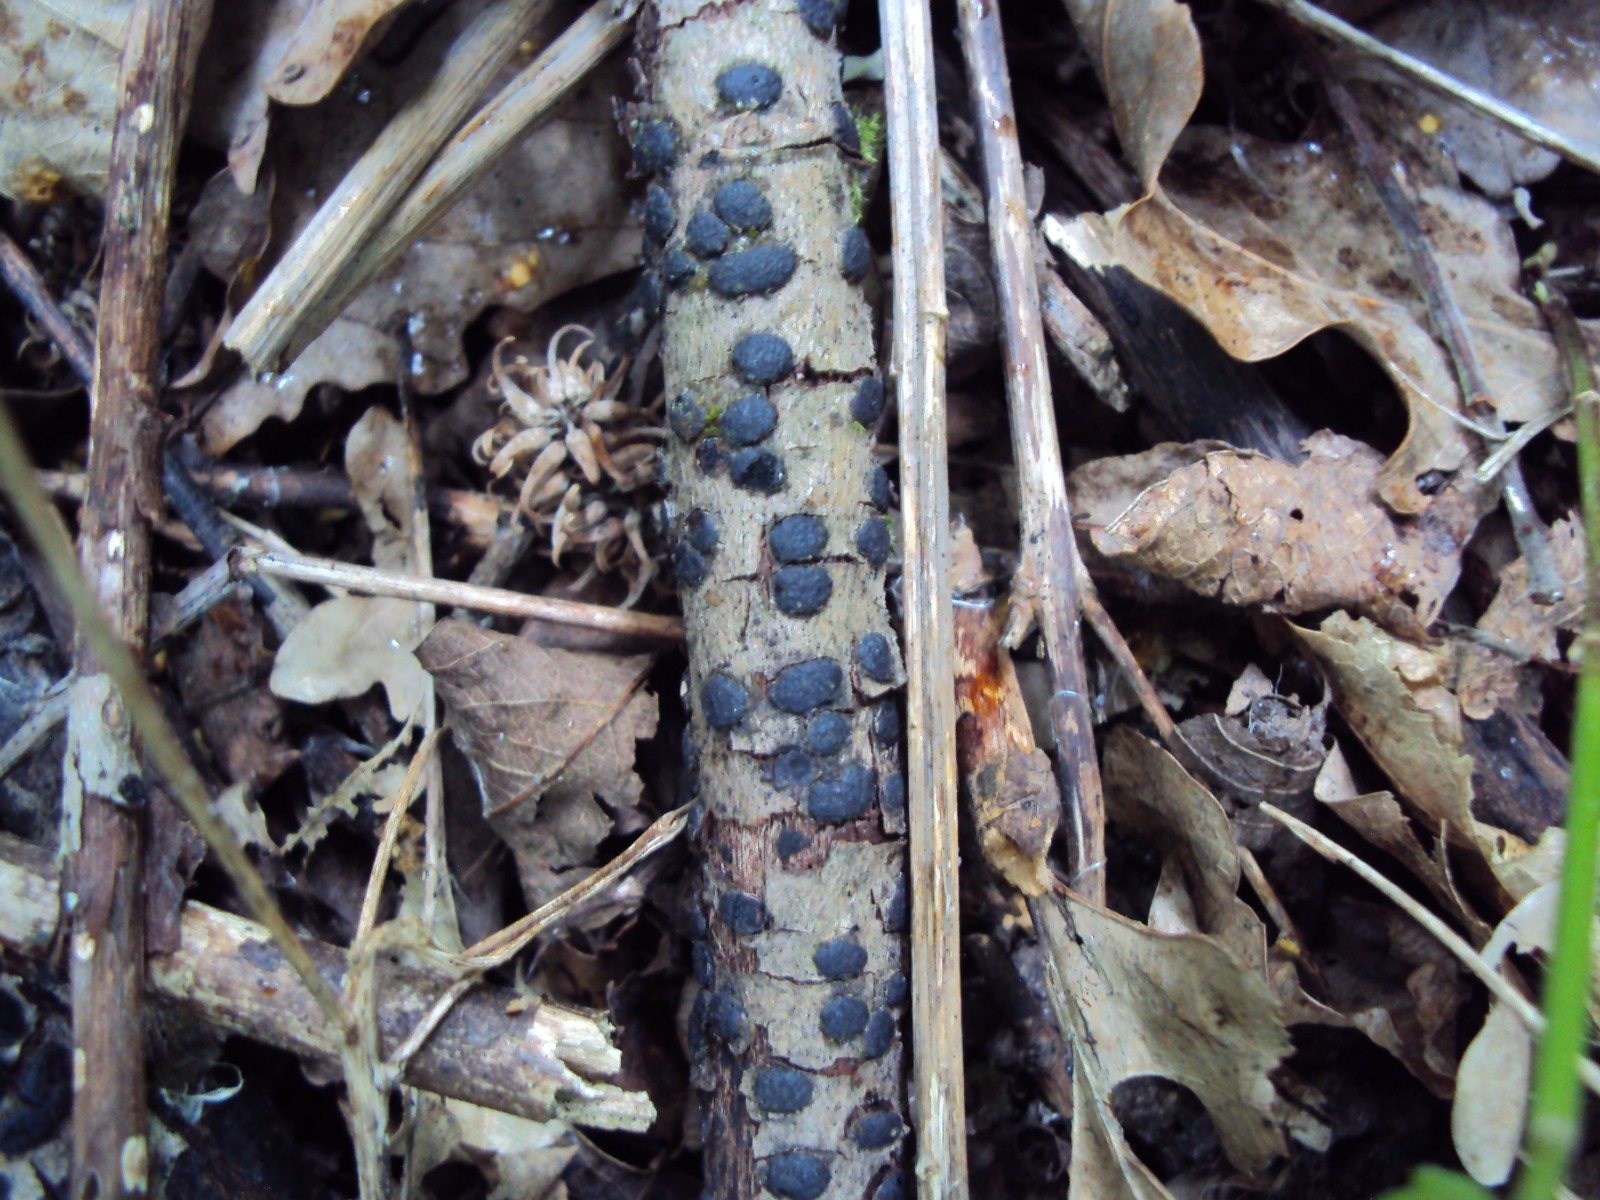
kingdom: Fungi
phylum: Ascomycota
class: Sordariomycetes
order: Xylariales
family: Diatrypaceae
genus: Diatrype
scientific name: Diatrype bullata
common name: pile-kulskorpe
